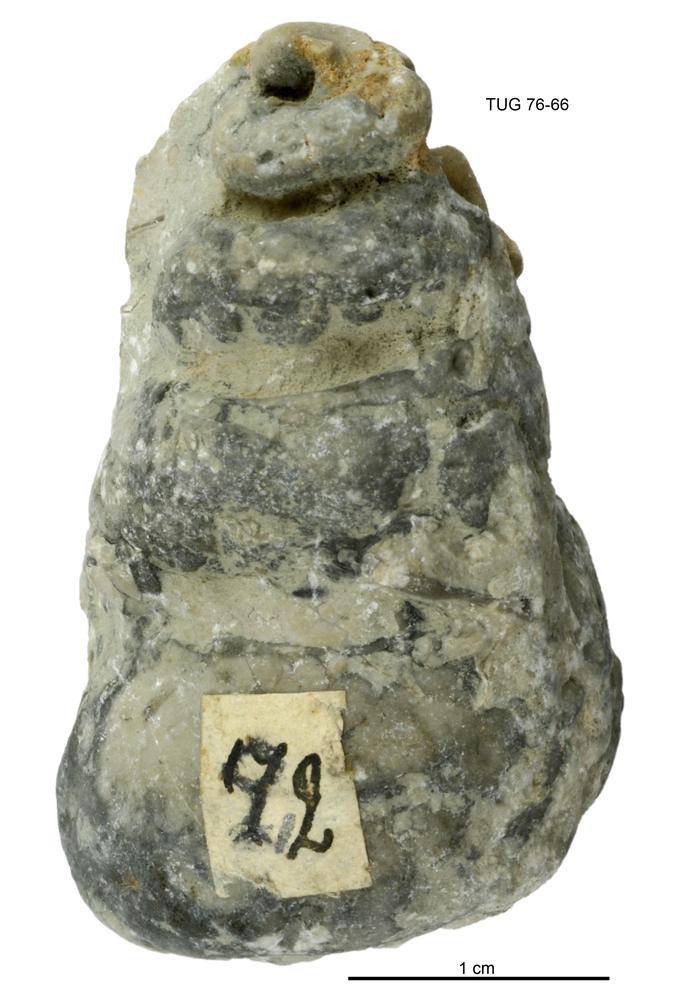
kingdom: Animalia
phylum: Mollusca
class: Gastropoda
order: Pleurotomariida
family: Murchisoniidae
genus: Murchisonia
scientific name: Murchisonia insignis
